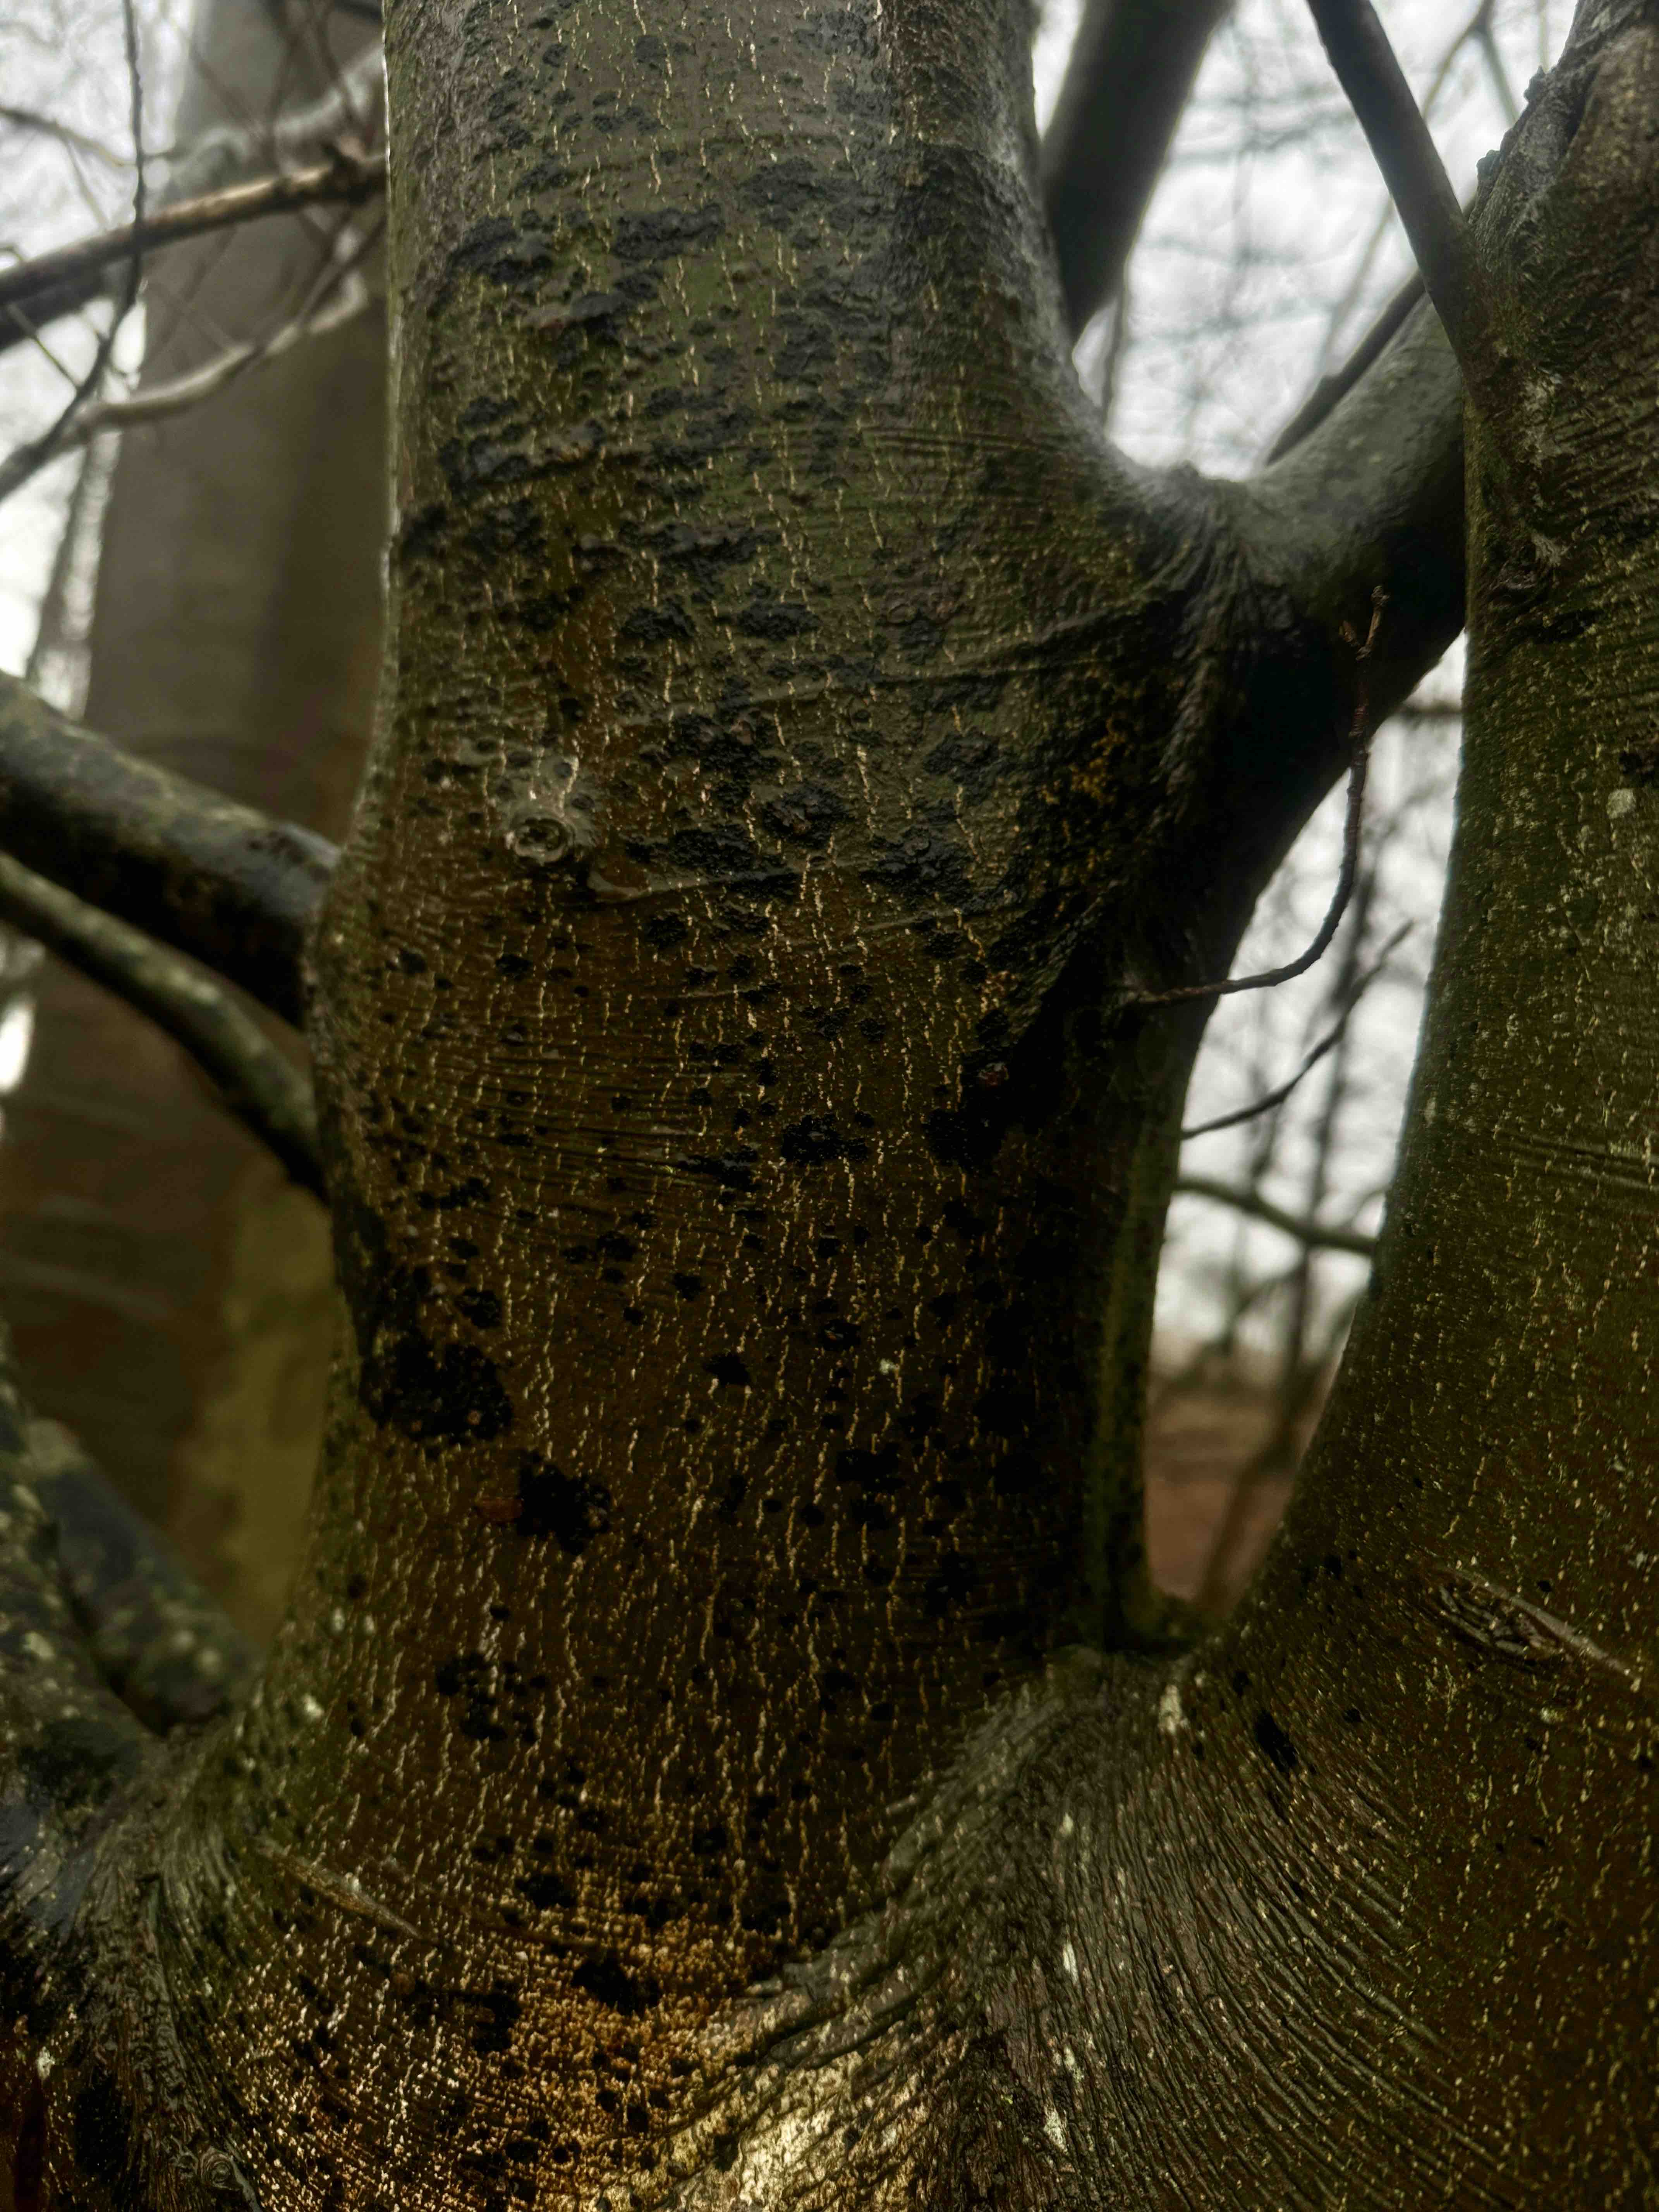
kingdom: Fungi
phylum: Ascomycota
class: Leotiomycetes
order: Rhytismatales
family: Ascodichaenaceae
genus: Ascodichaena
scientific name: Ascodichaena rugosa
